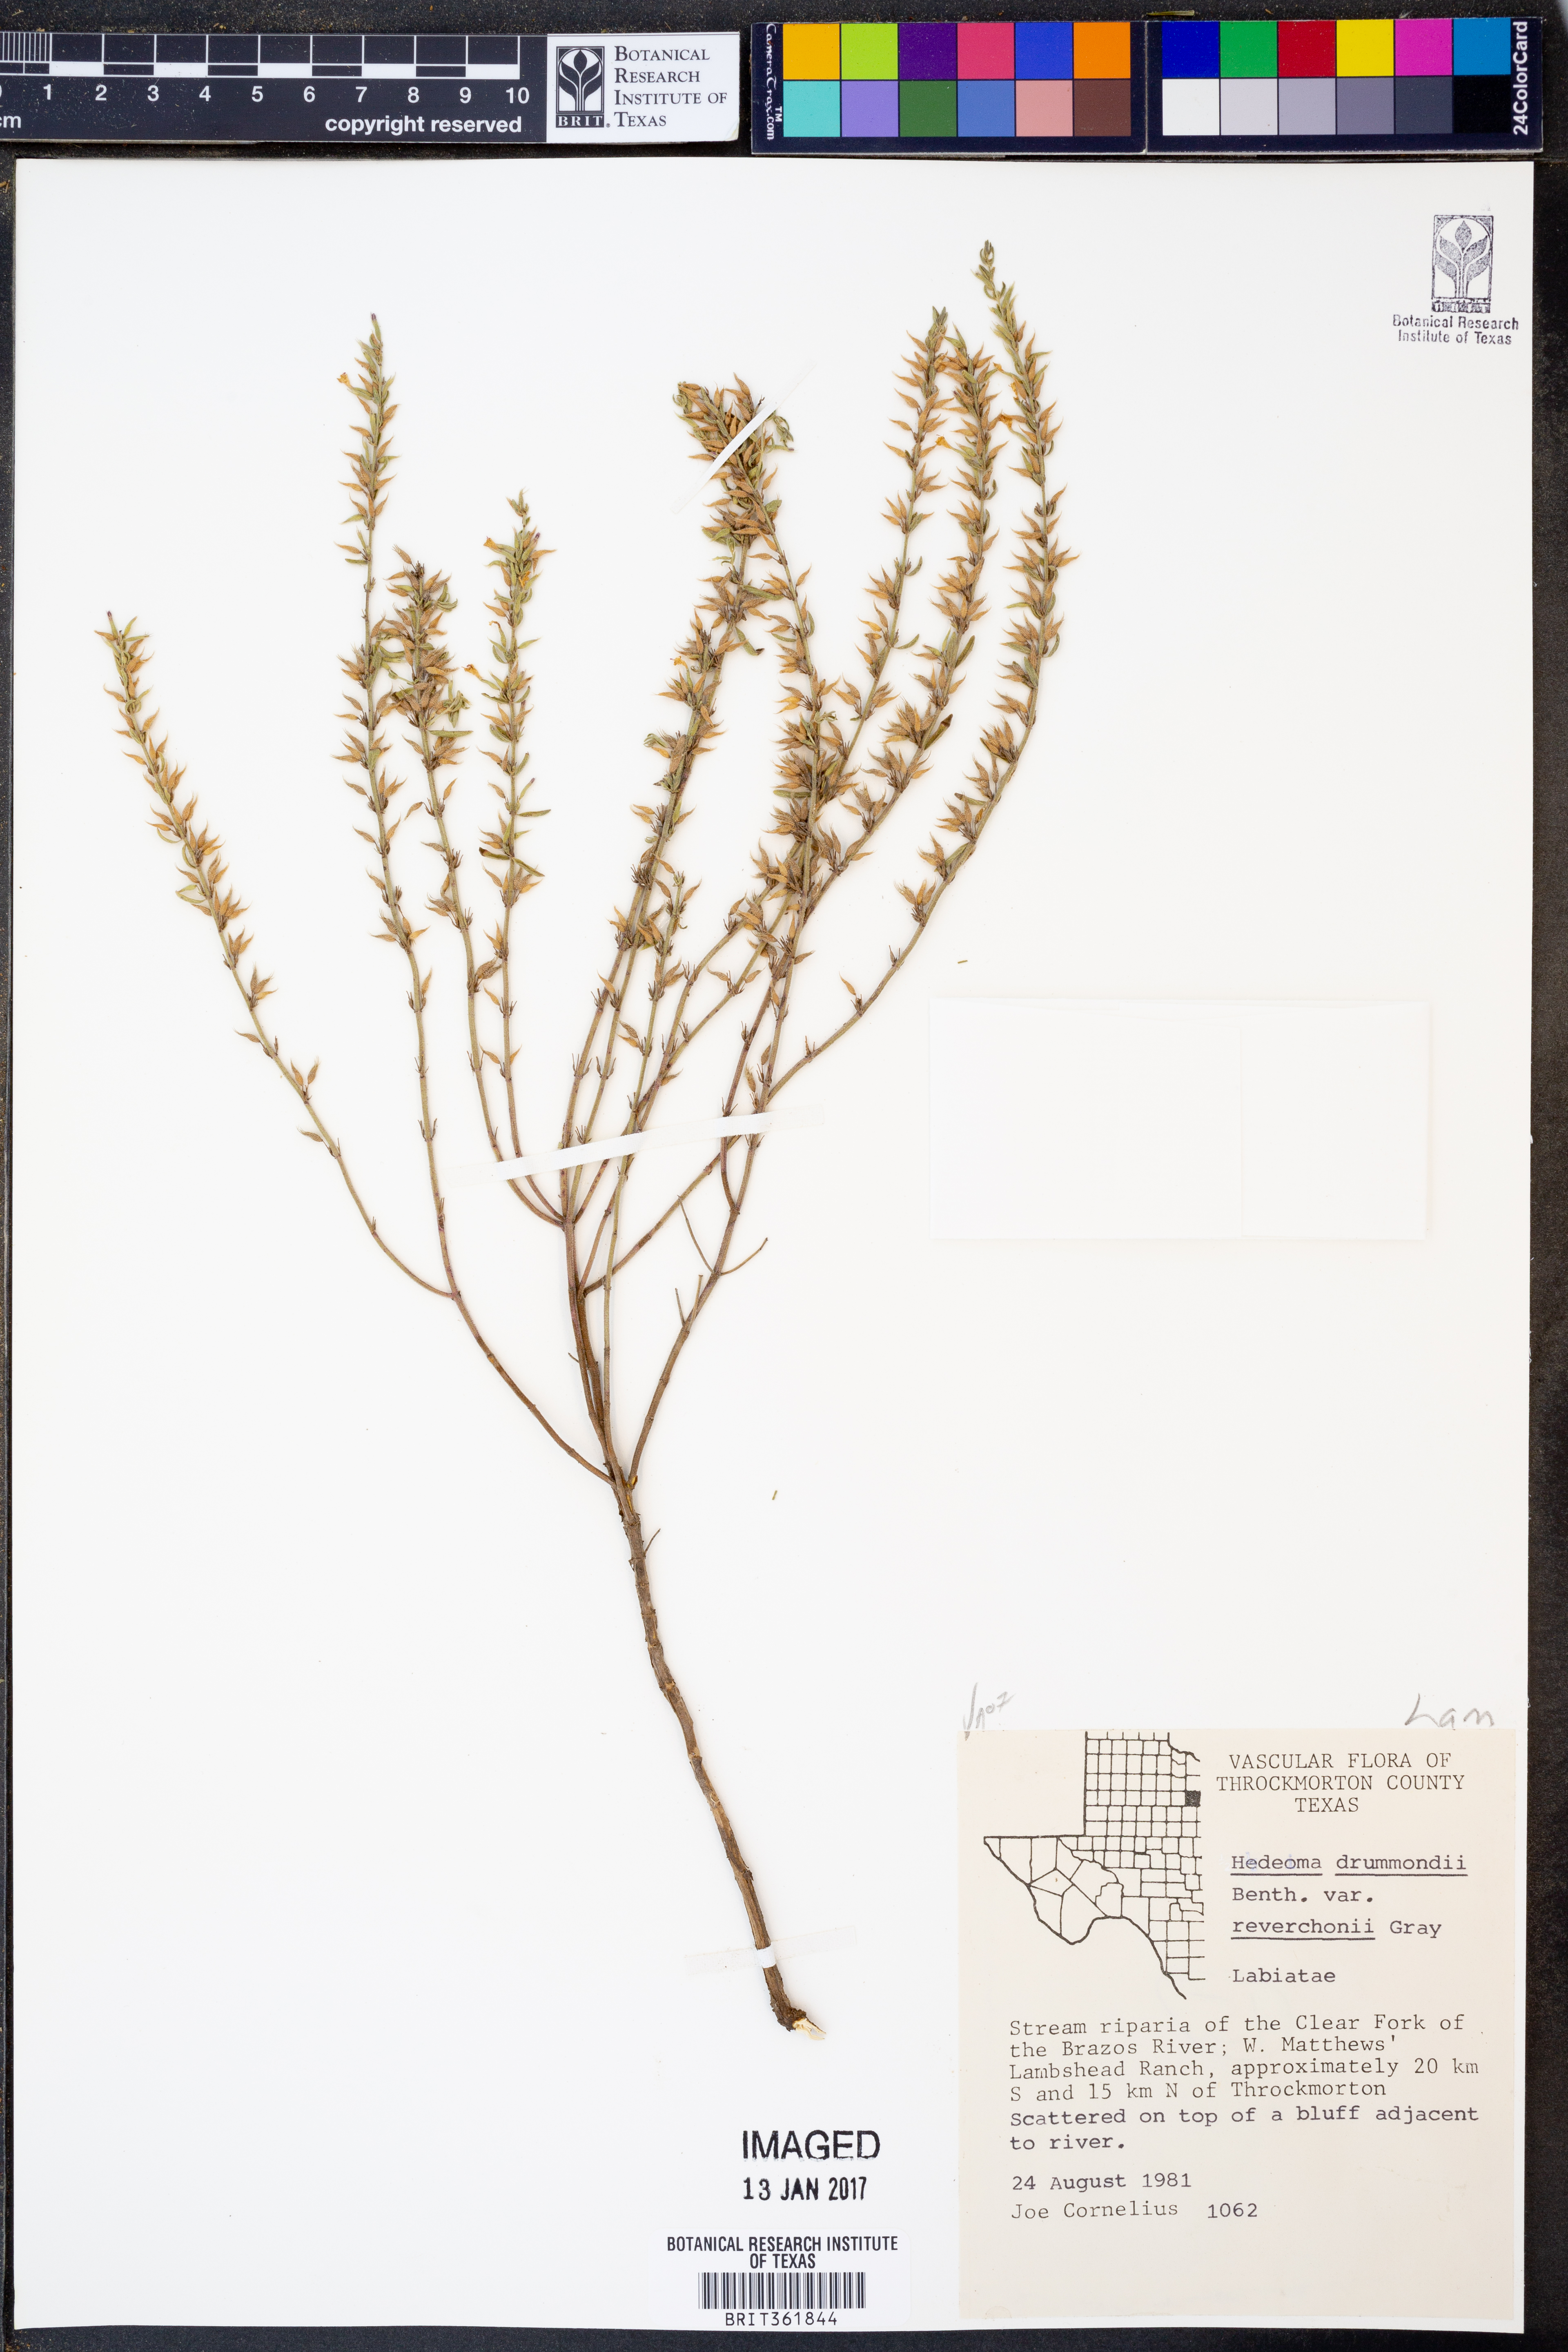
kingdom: Plantae
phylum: Tracheophyta
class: Magnoliopsida
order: Lamiales
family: Lamiaceae
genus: Hedeoma
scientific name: Hedeoma drummondii
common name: New mexico pennyroyal
